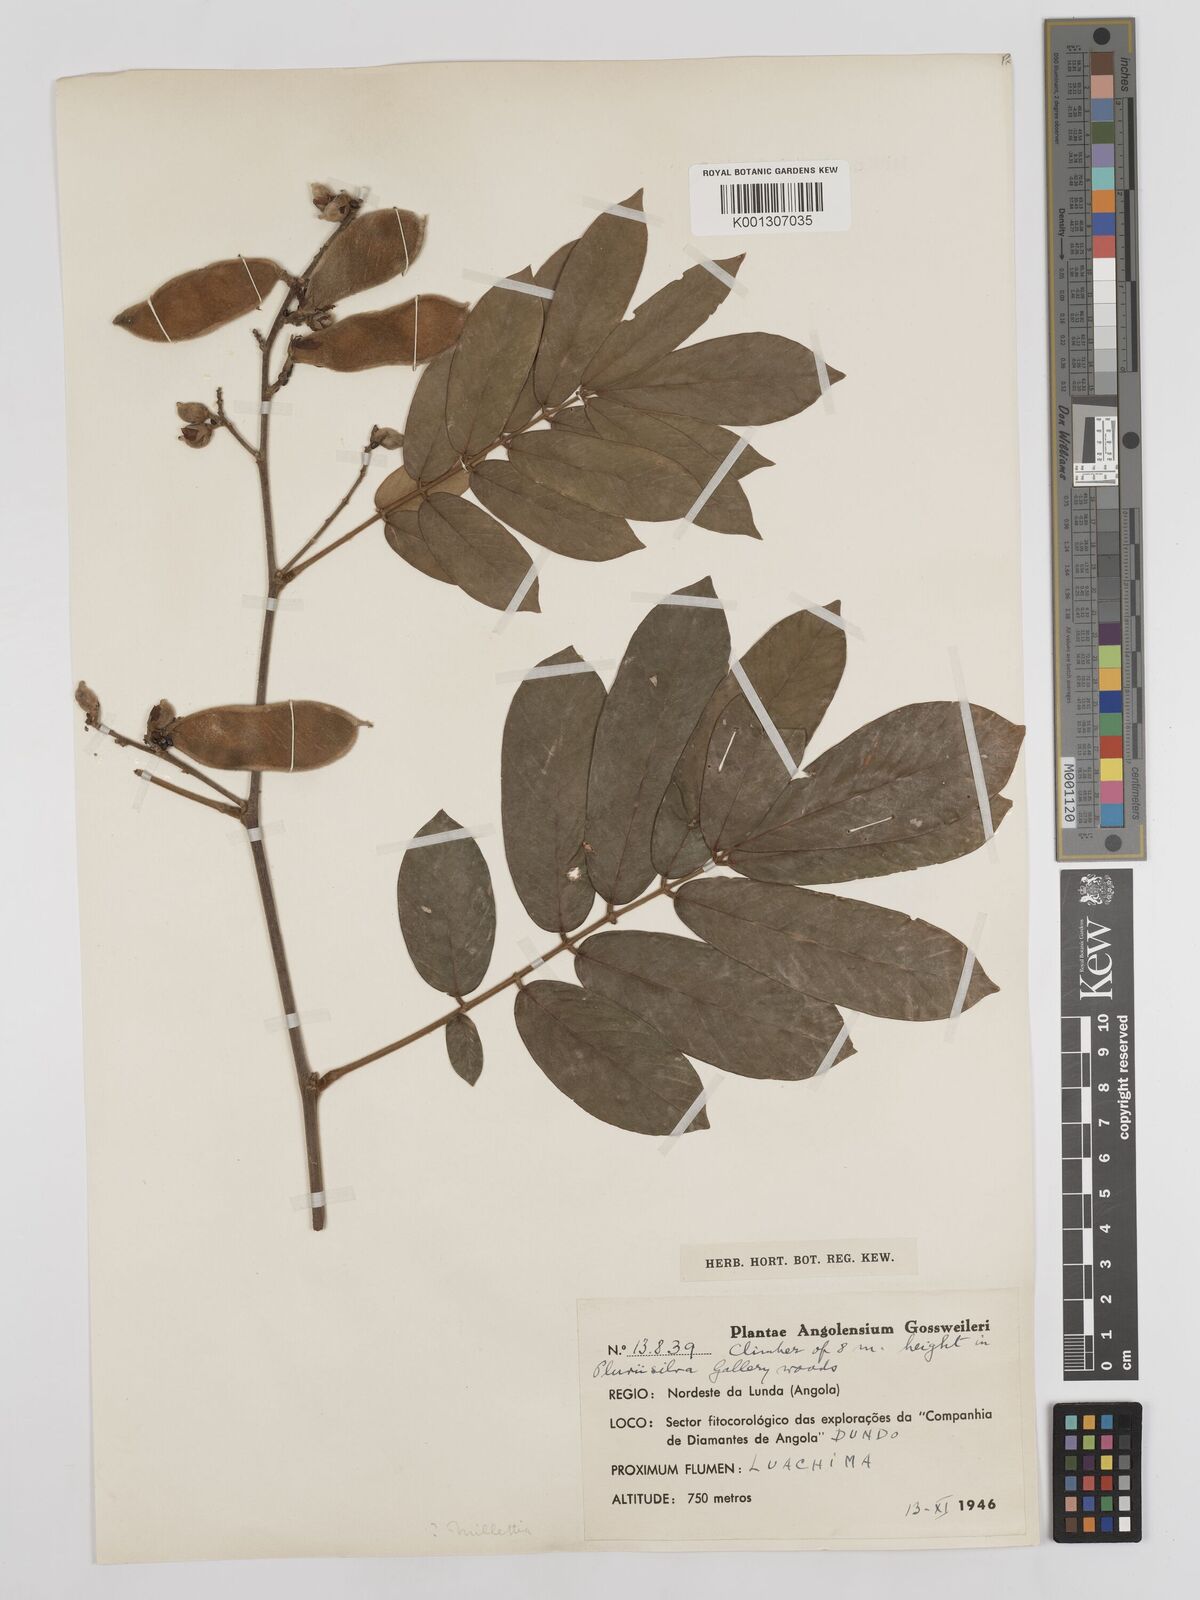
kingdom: Plantae
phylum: Tracheophyta
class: Magnoliopsida
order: Fabales
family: Fabaceae
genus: Millettia
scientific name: Millettia
